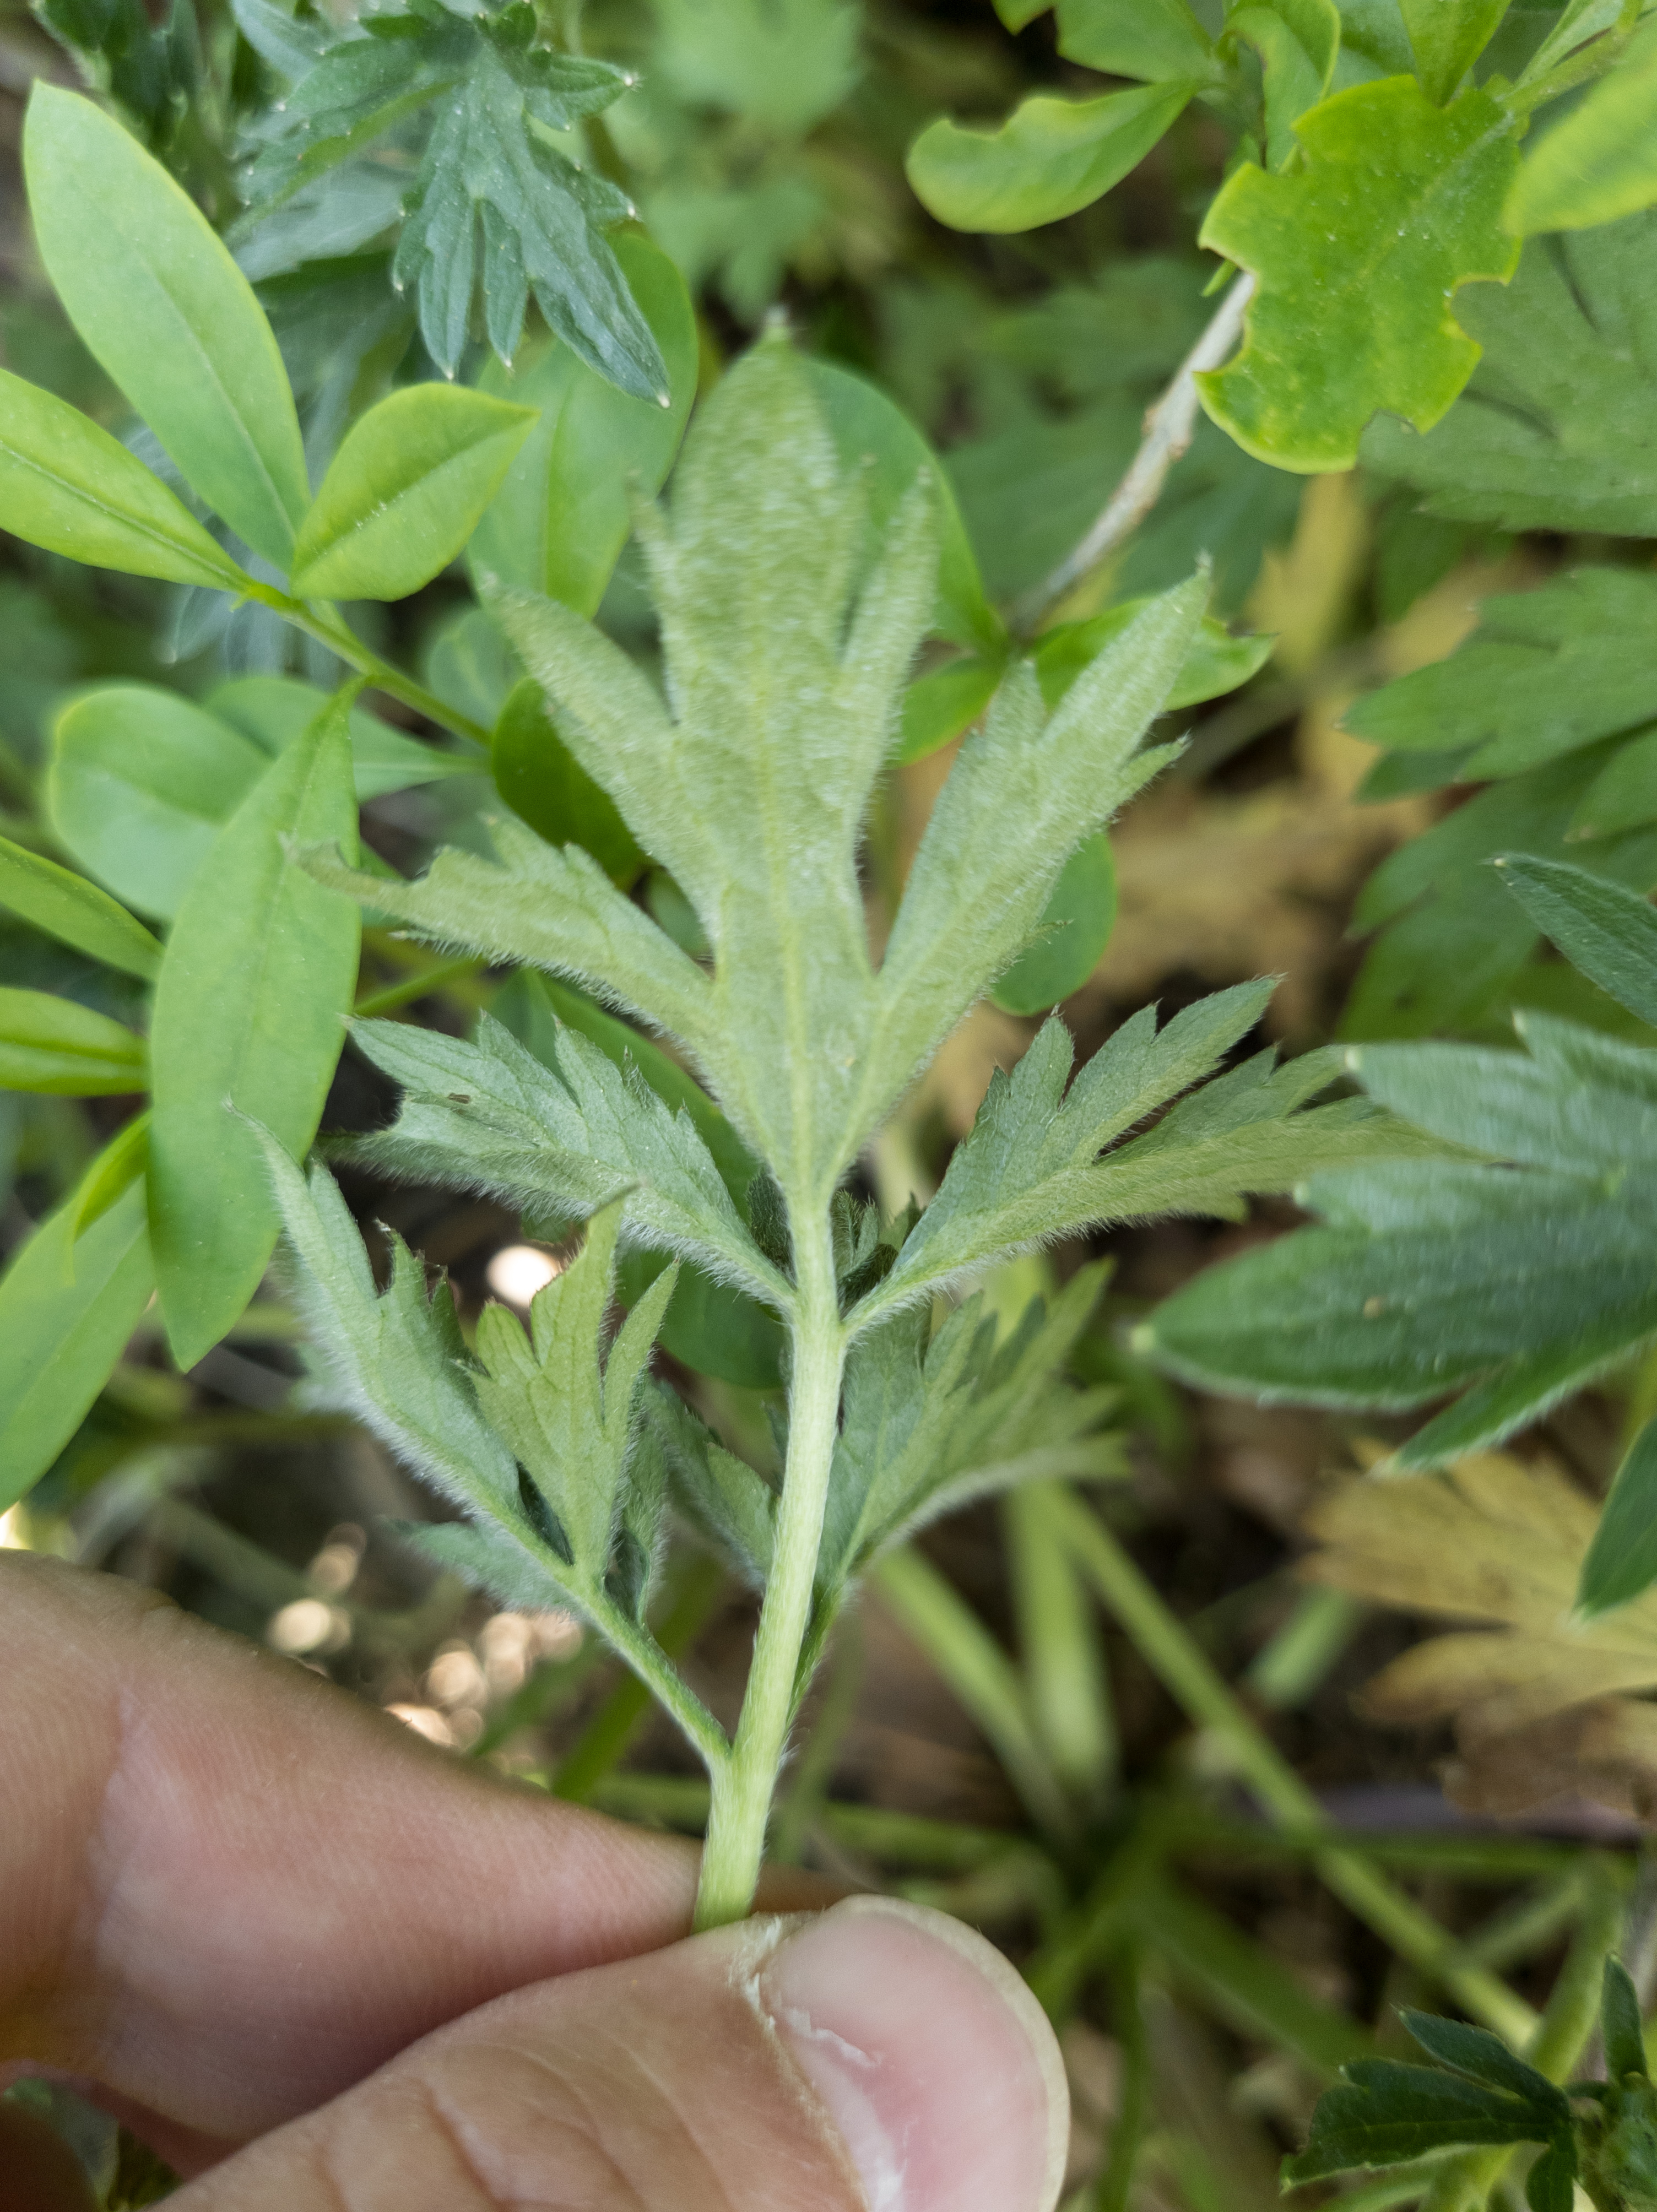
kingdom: Plantae
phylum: Tracheophyta
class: Magnoliopsida
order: Ranunculales
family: Ranunculaceae
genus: Ranunculus
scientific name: Ranunculus repens
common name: Lav ranunkel
